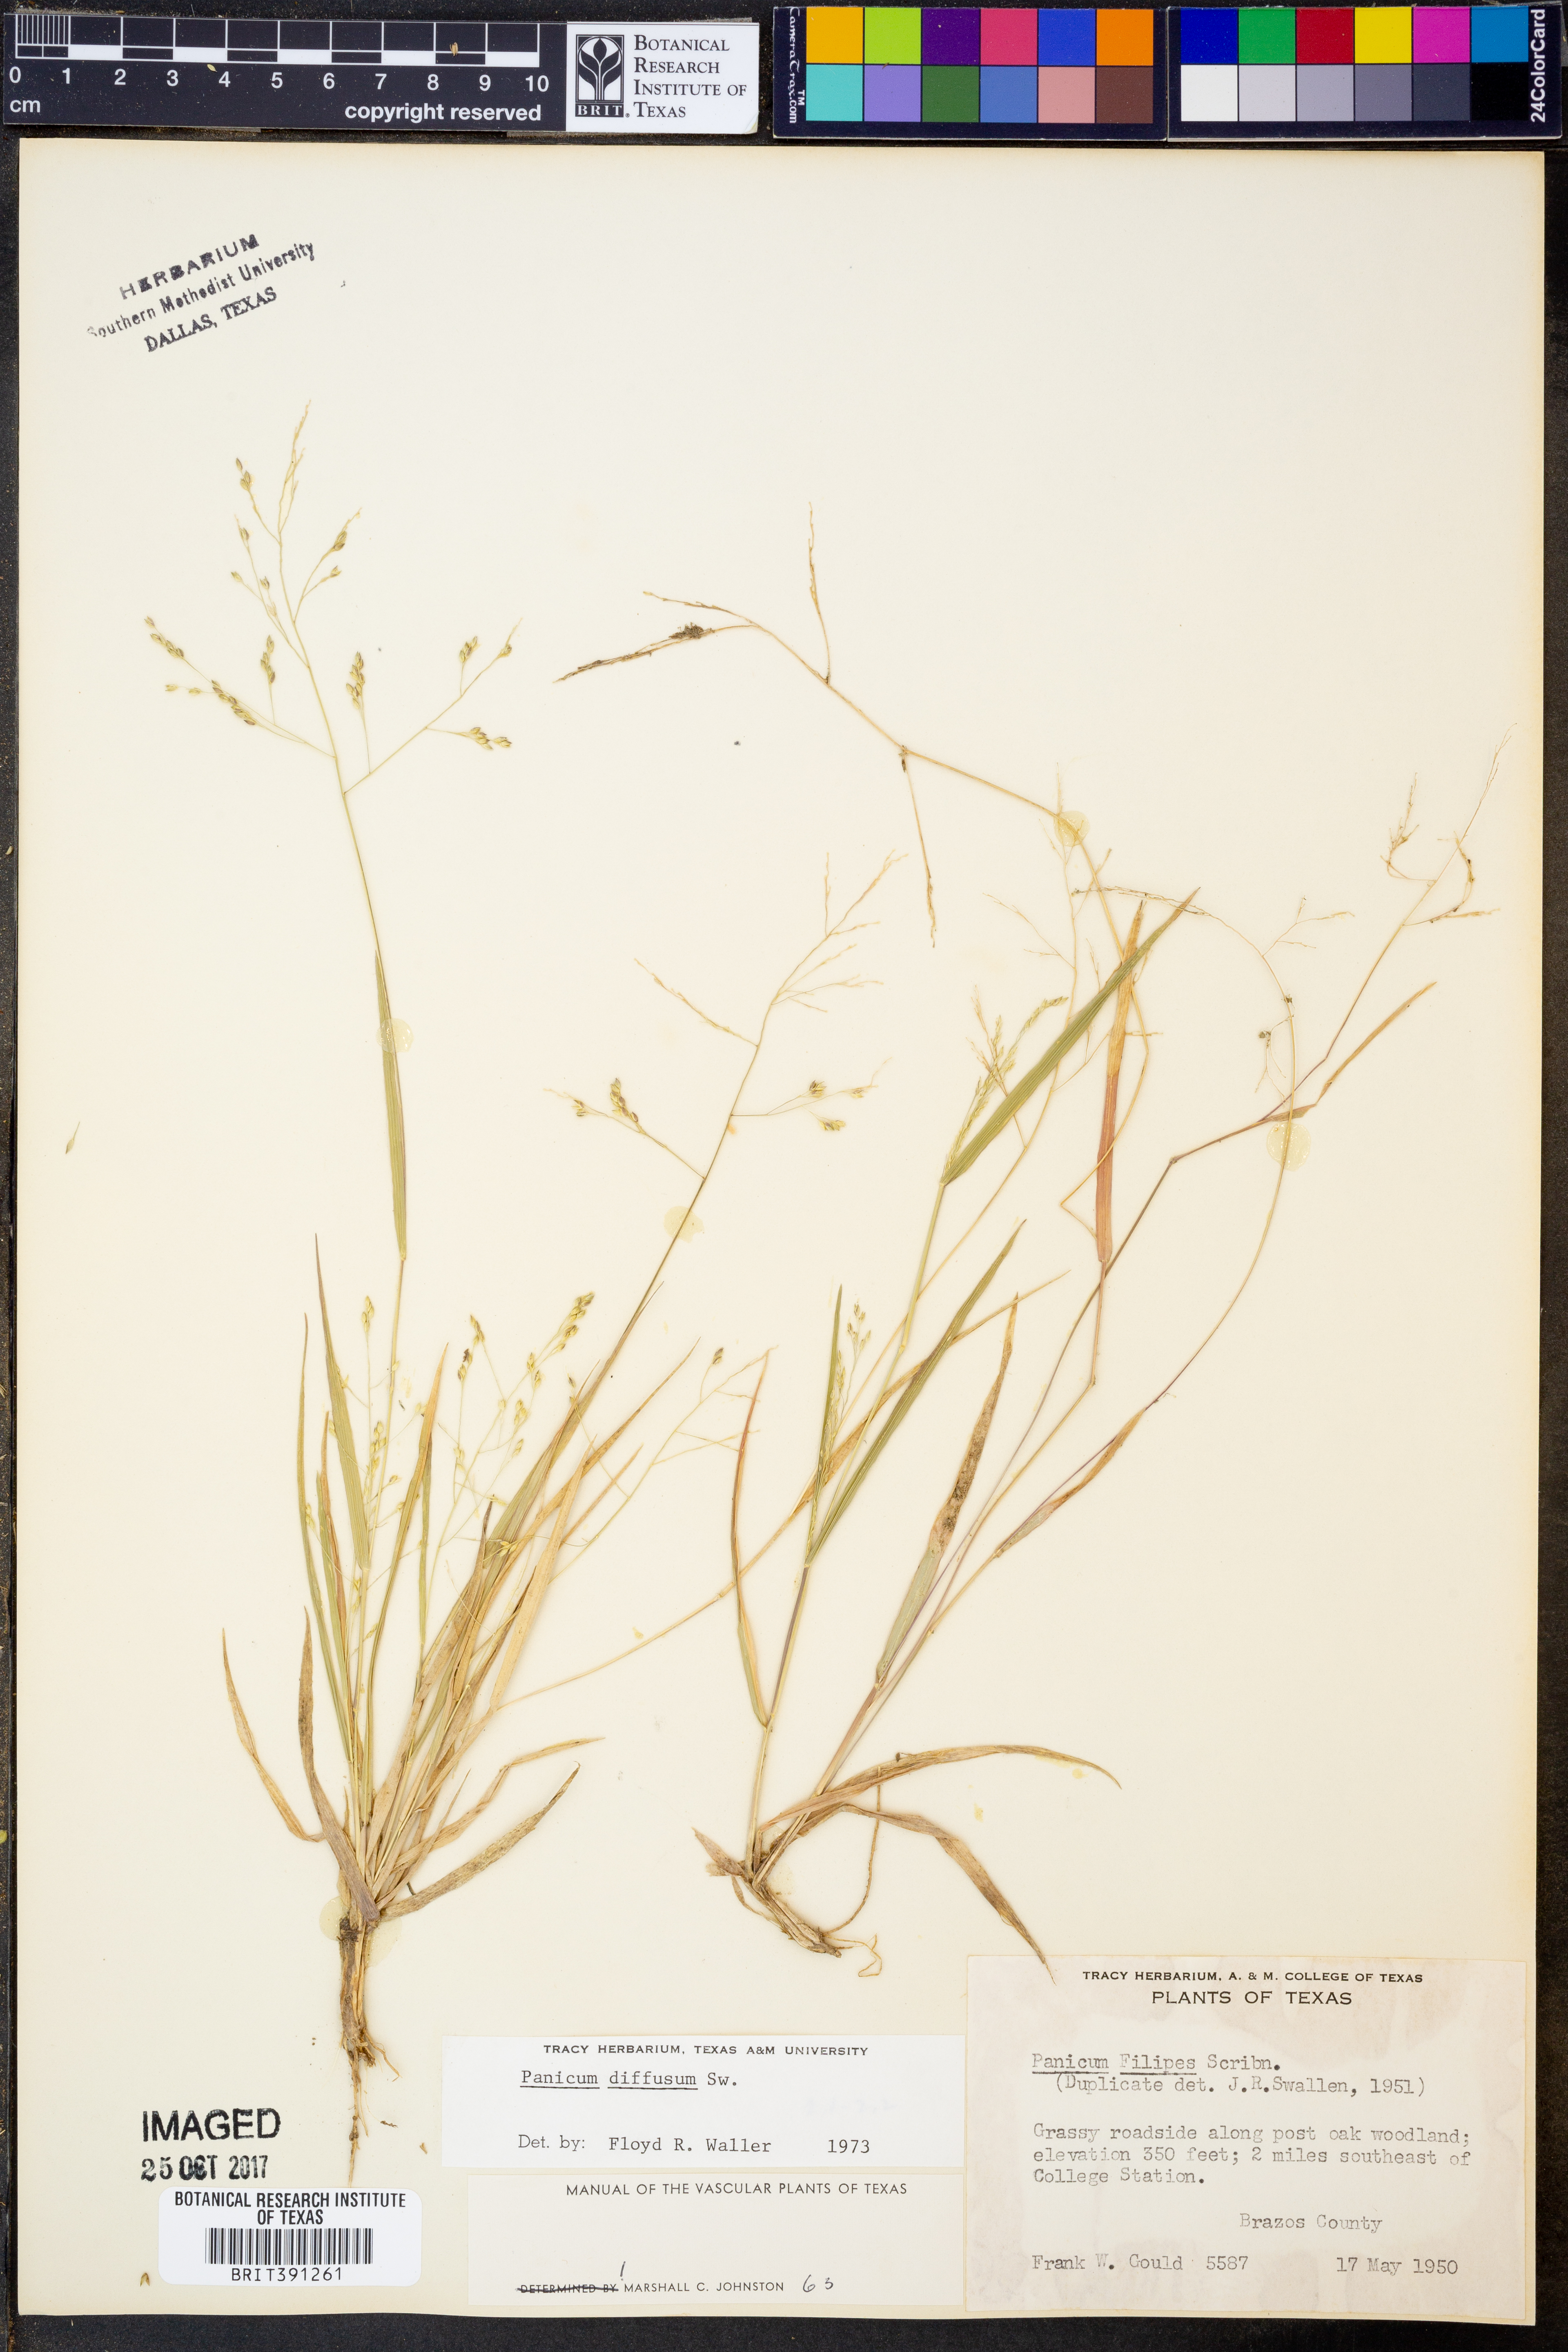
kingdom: Plantae
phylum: Tracheophyta
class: Liliopsida
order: Poales
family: Poaceae
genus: Panicum
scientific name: Panicum diffusum
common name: Spreading panicgrass
